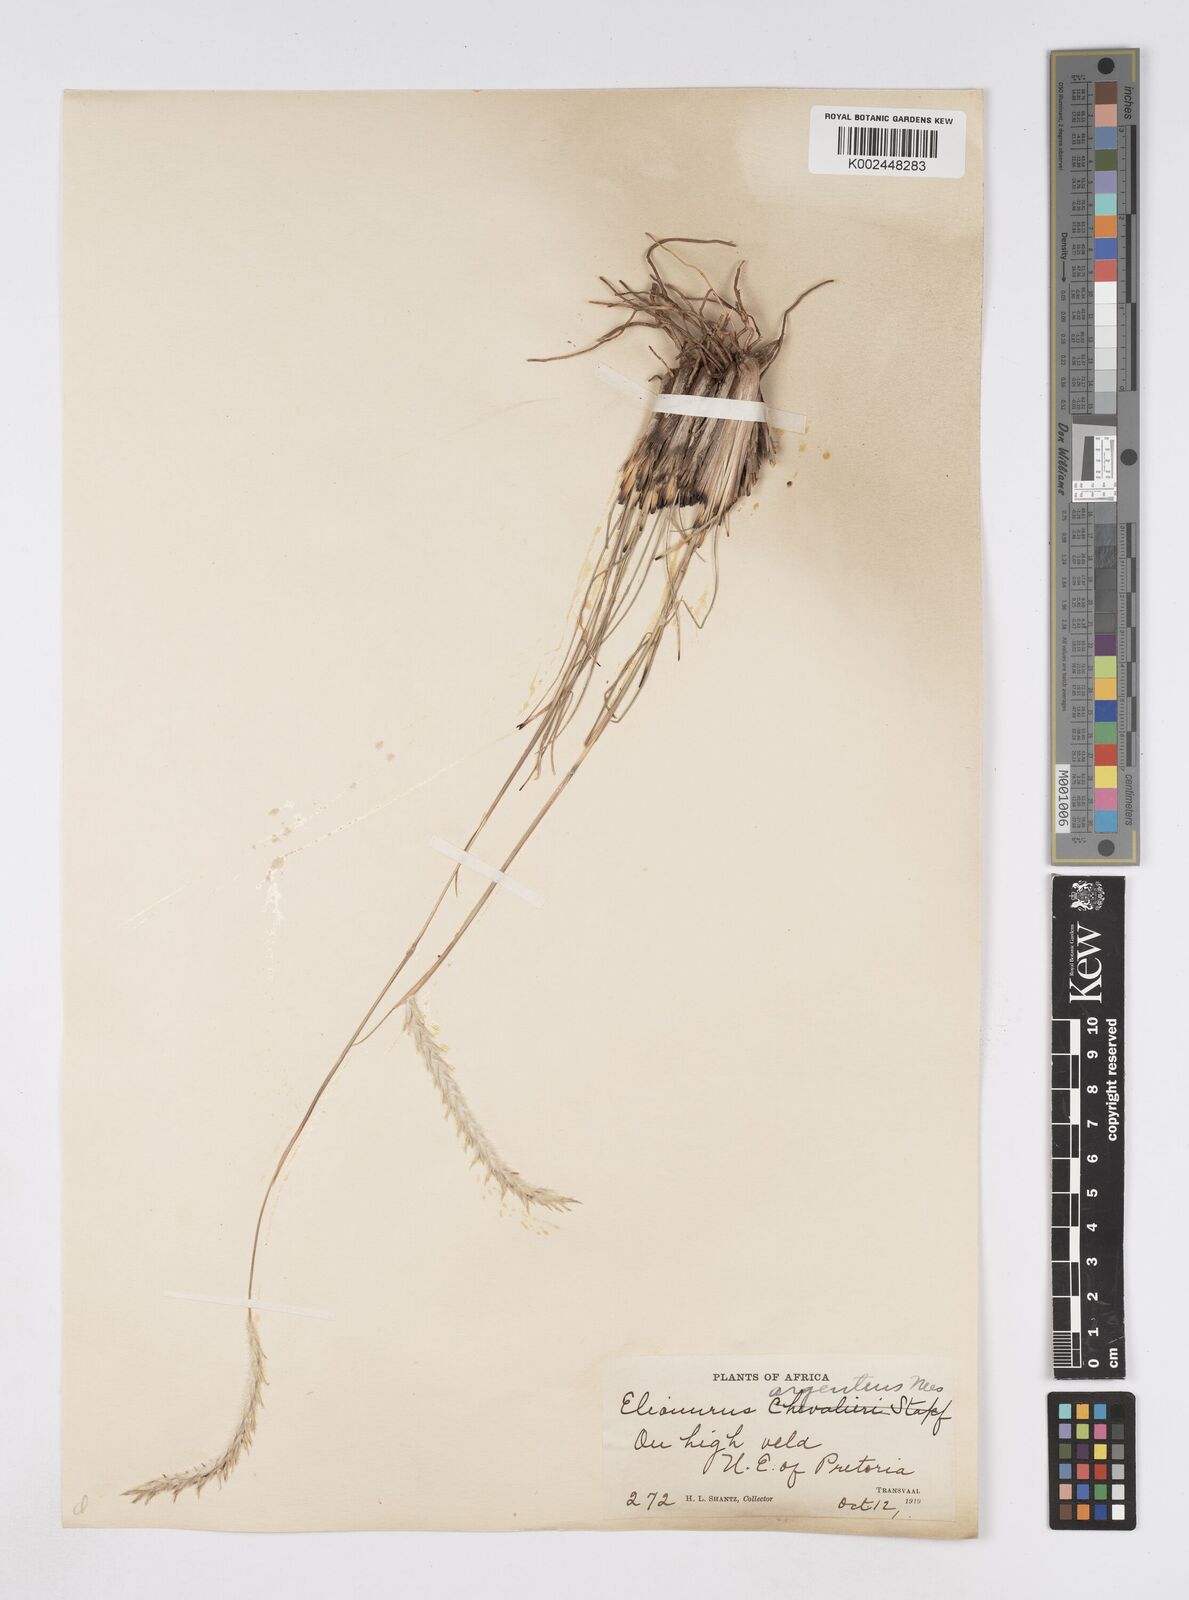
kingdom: Plantae
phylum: Tracheophyta
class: Liliopsida
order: Poales
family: Poaceae
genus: Elionurus
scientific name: Elionurus muticus
